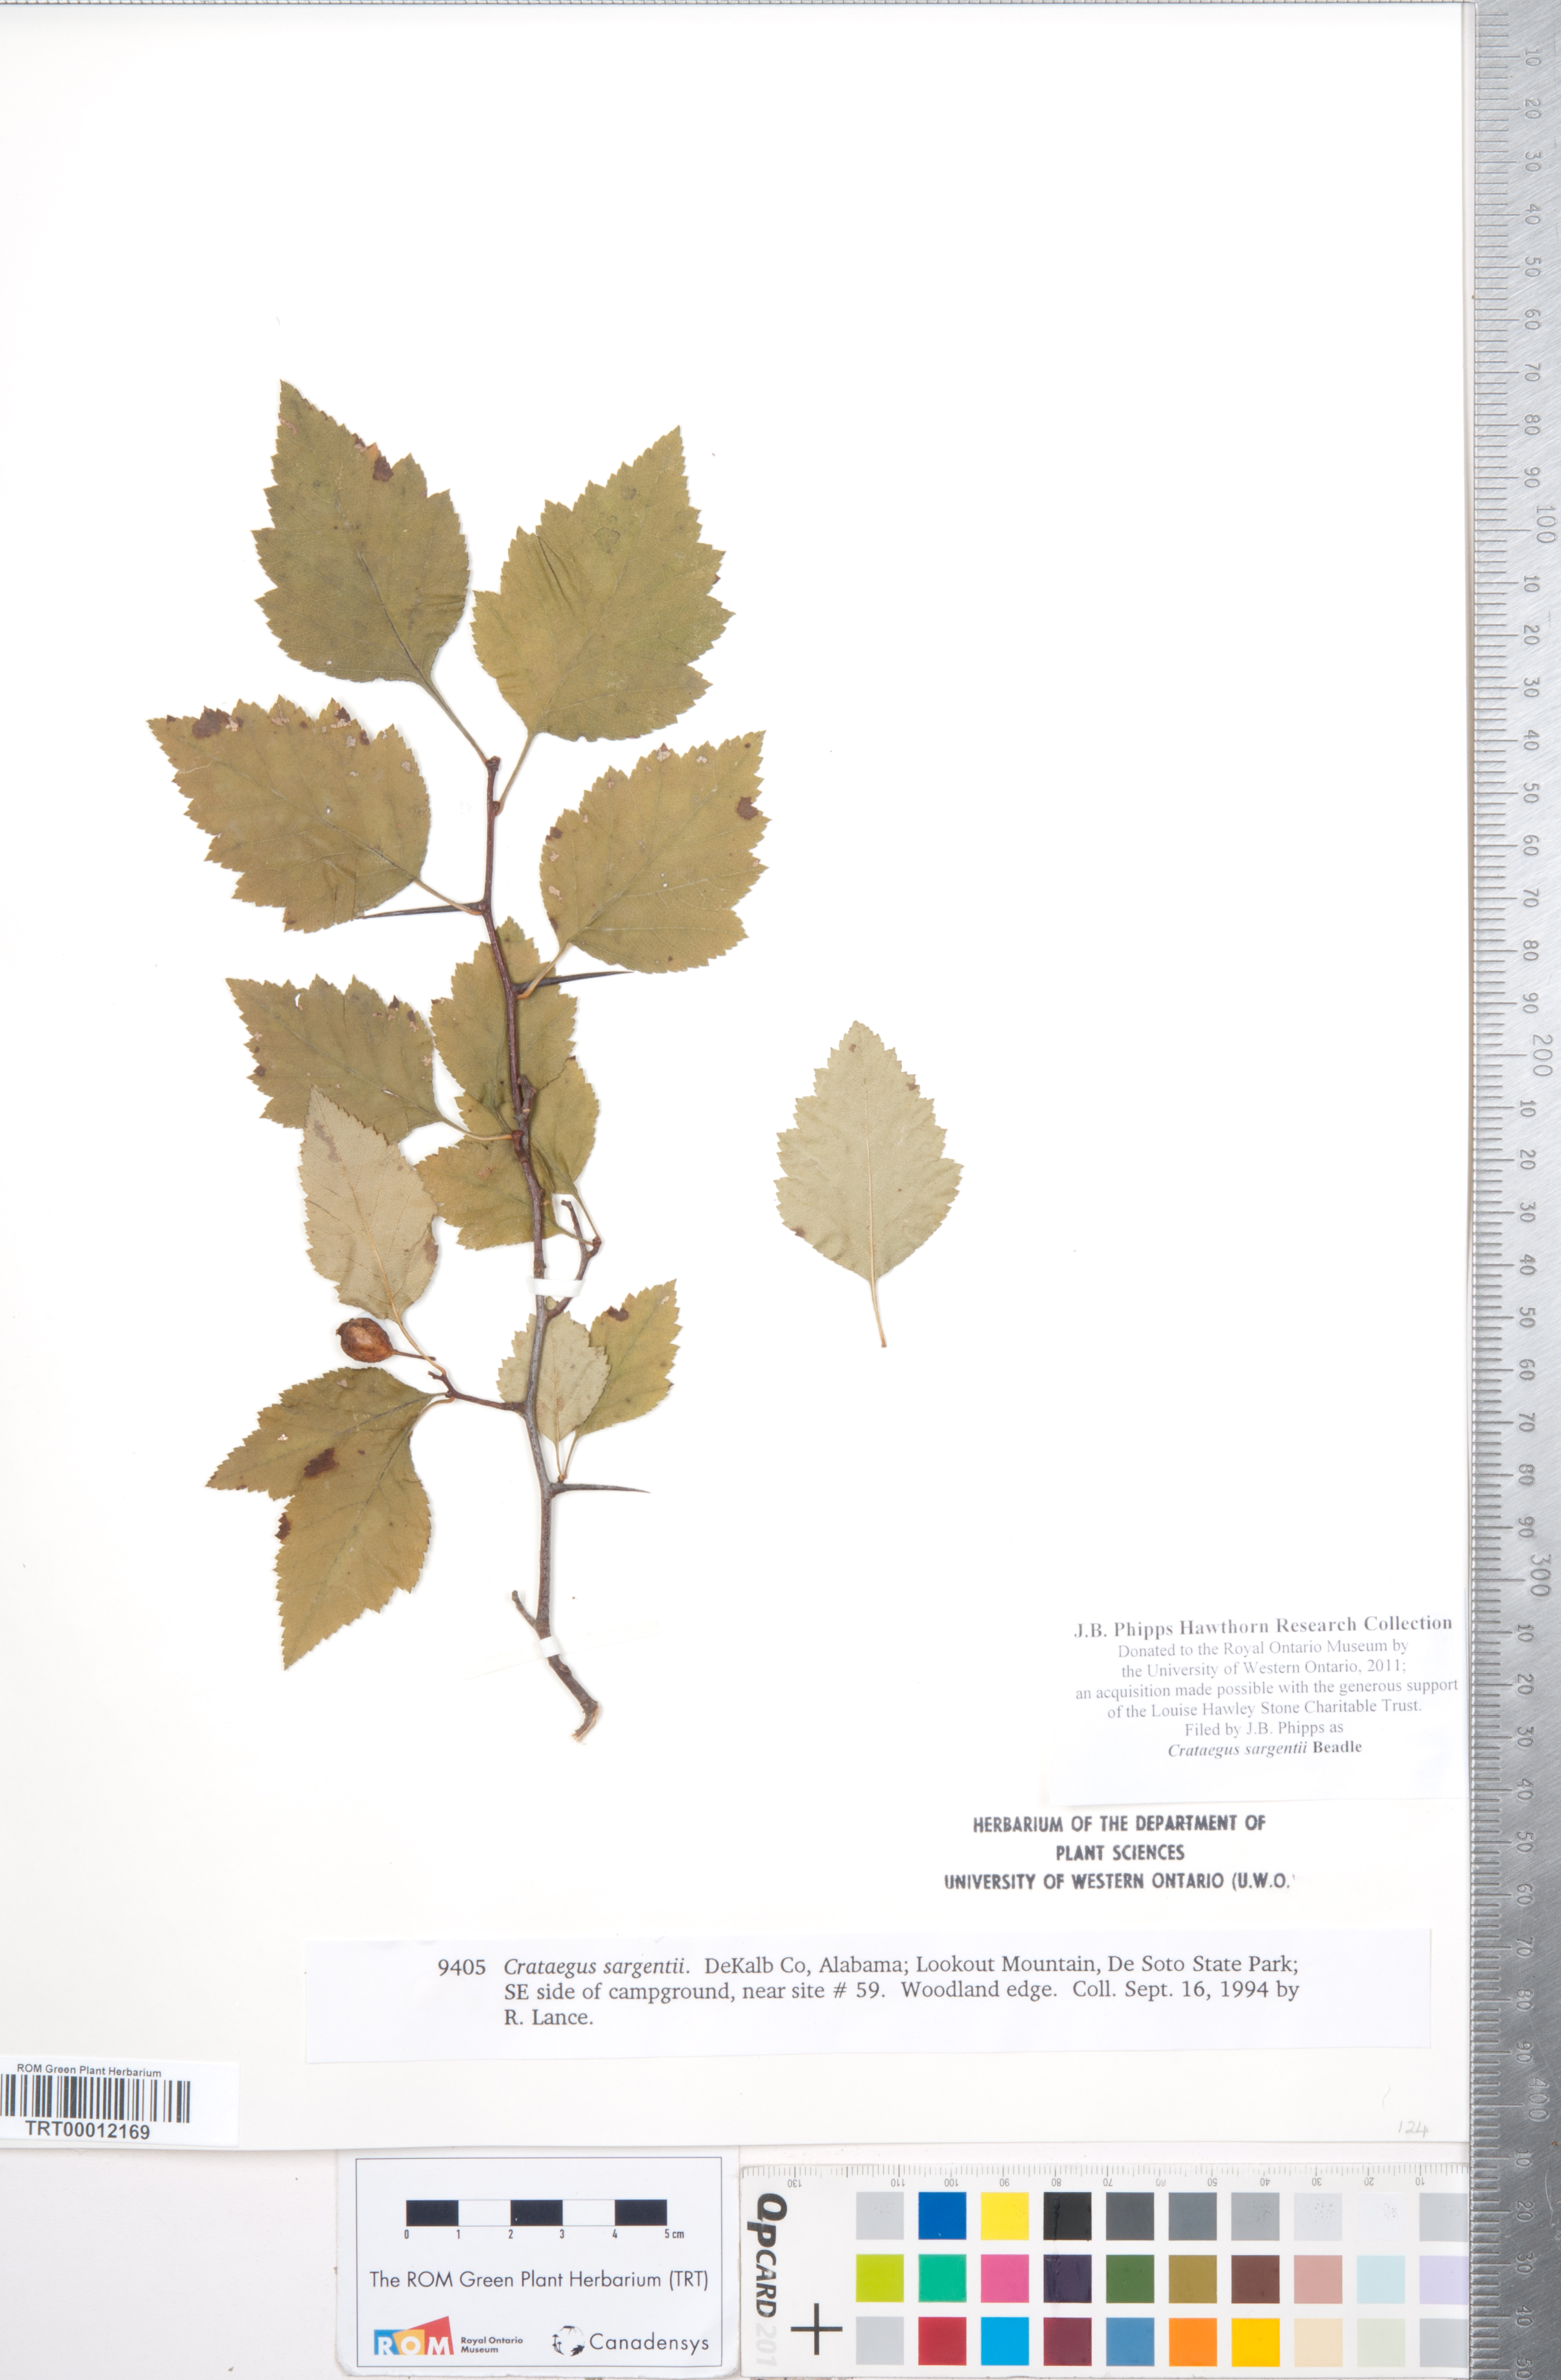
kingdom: Plantae
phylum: Tracheophyta
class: Magnoliopsida
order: Rosales
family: Rosaceae
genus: Crataegus
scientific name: Crataegus sargentii
